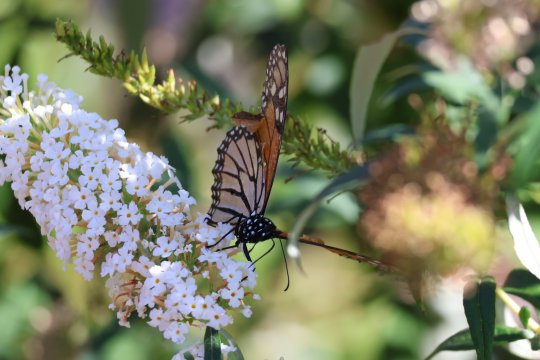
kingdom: Animalia
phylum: Arthropoda
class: Insecta
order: Lepidoptera
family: Nymphalidae
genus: Danaus
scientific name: Danaus plexippus
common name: Monarch
